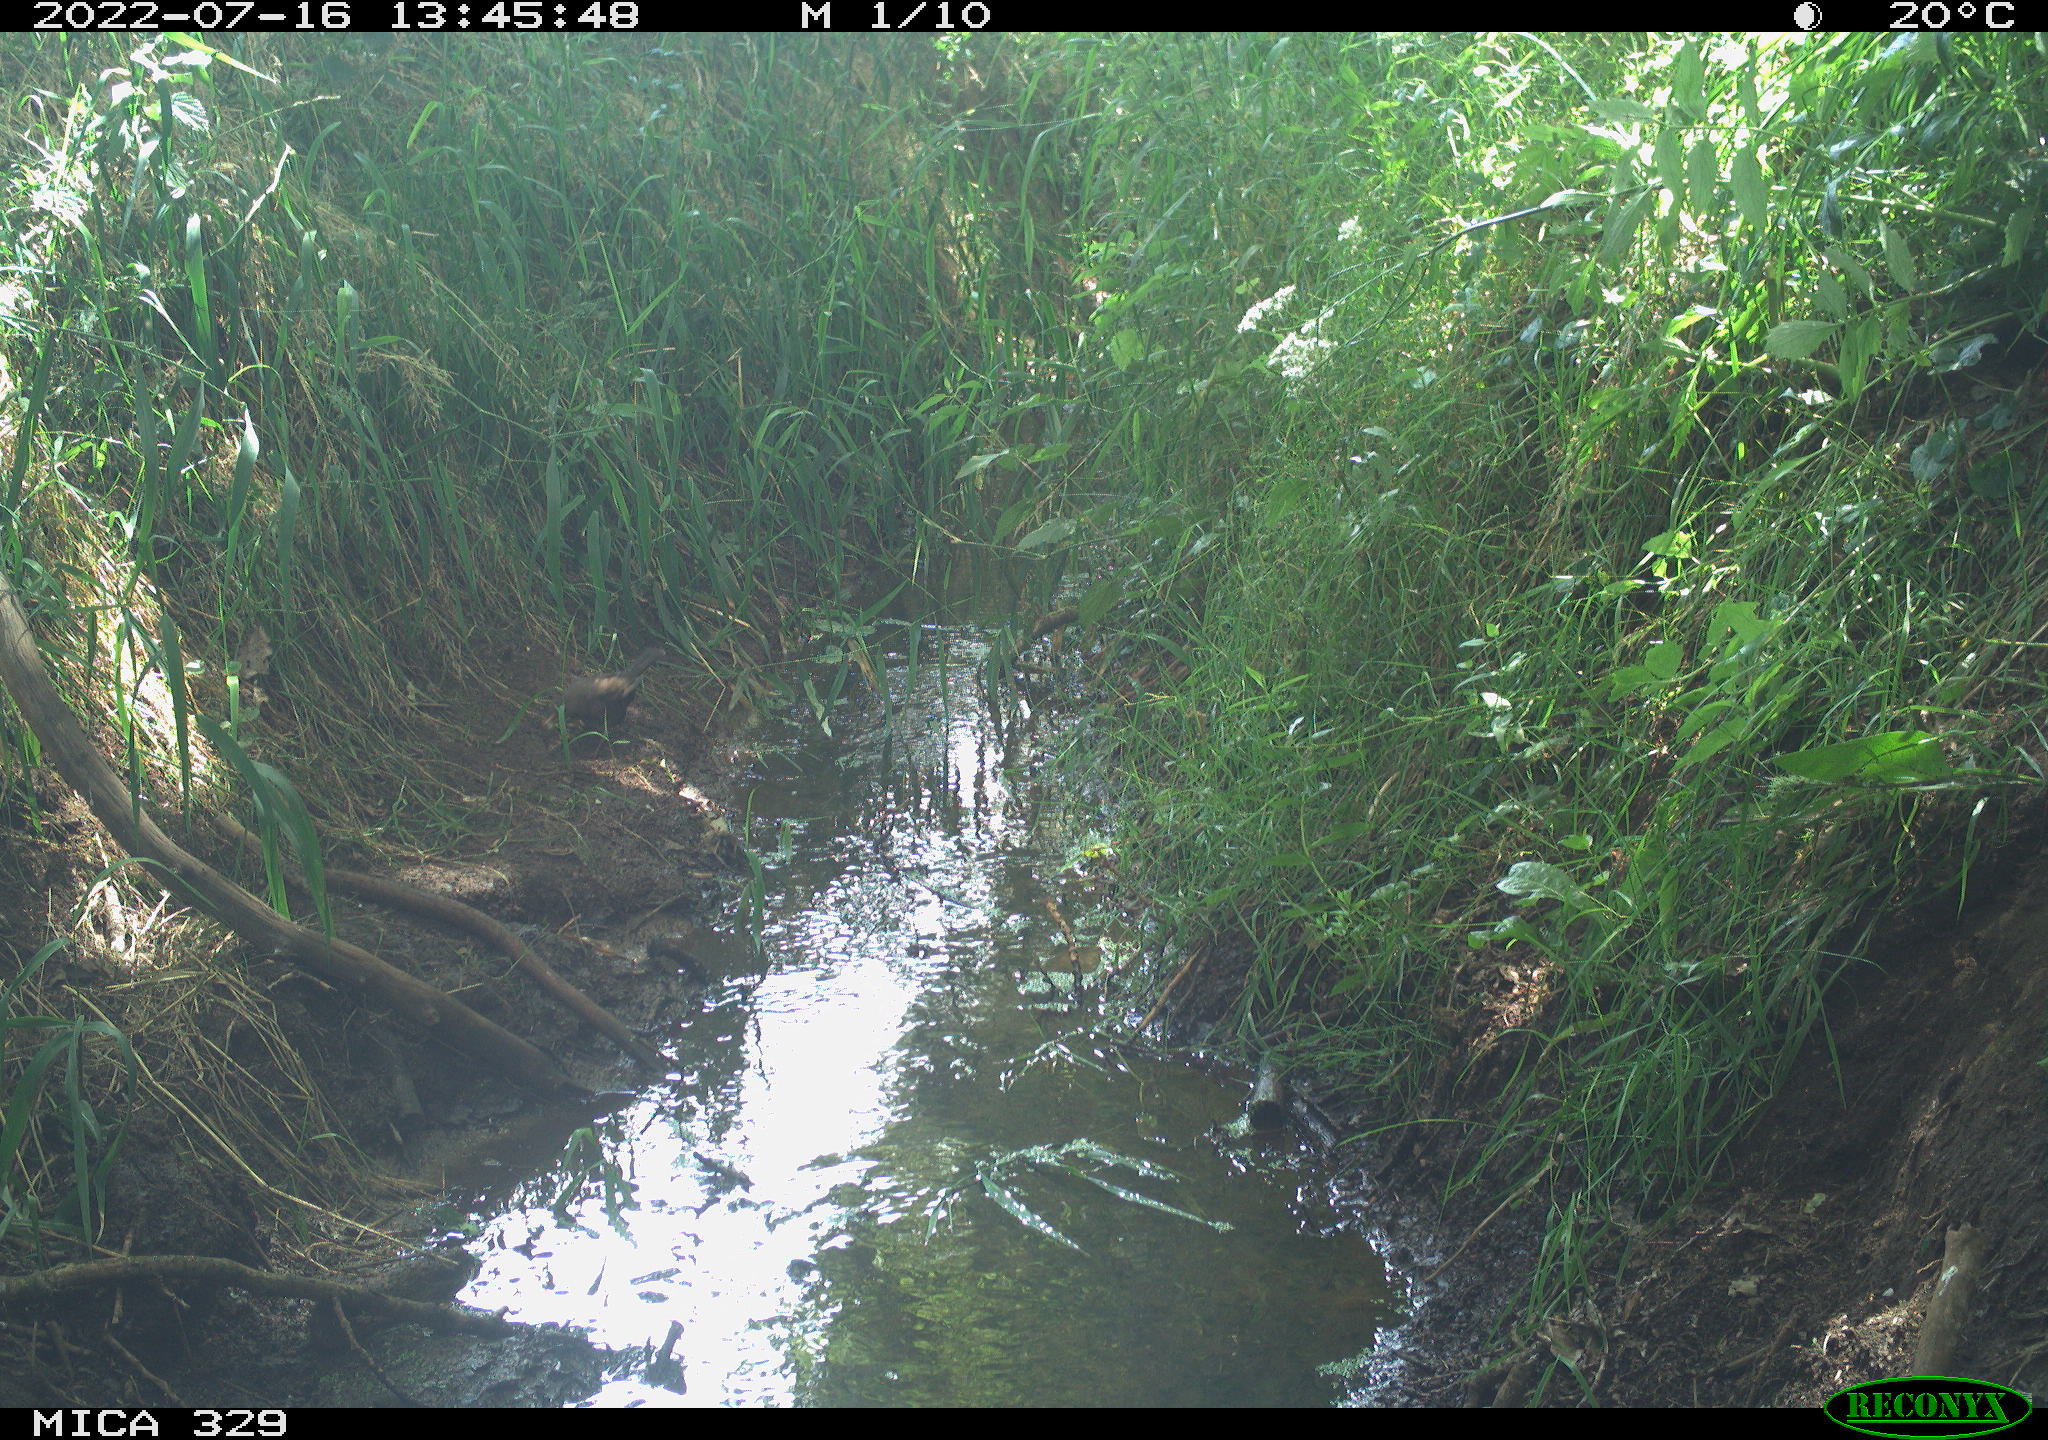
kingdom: Animalia
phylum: Chordata
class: Aves
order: Passeriformes
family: Turdidae
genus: Turdus
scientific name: Turdus merula
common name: Common blackbird
